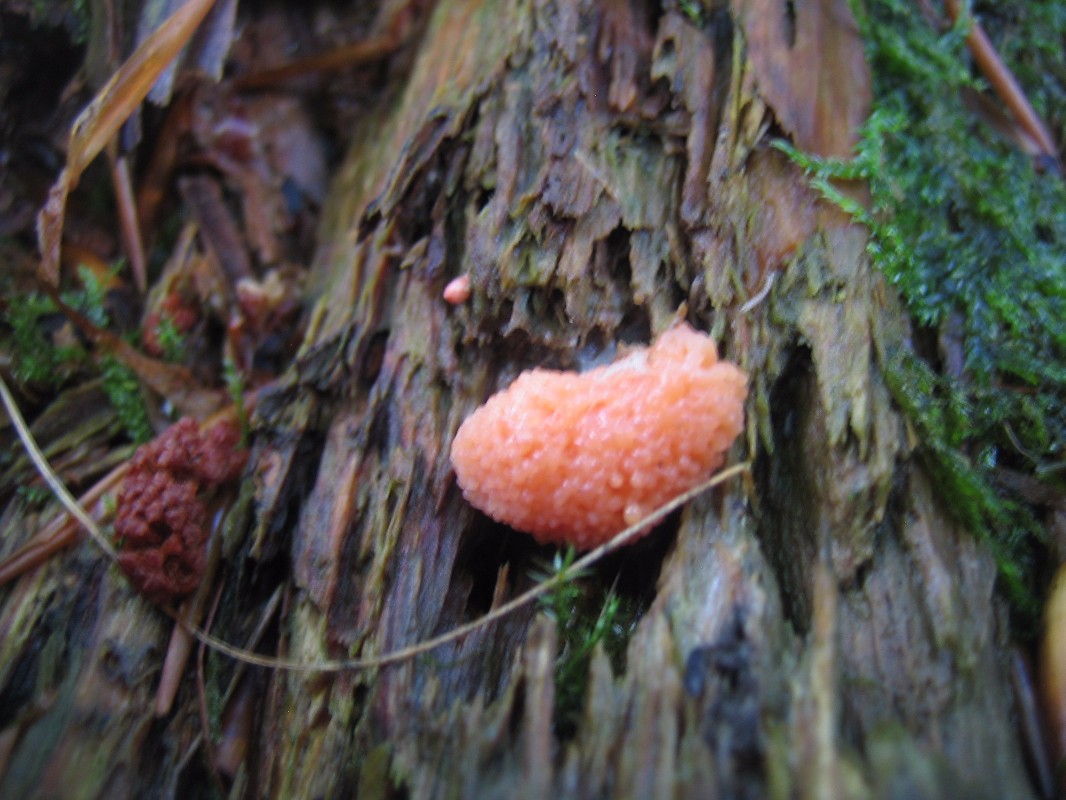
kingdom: Protozoa
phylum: Mycetozoa
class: Myxomycetes
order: Cribrariales
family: Tubiferaceae
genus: Tubifera
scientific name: Tubifera ferruginosa
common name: kanel-støvrør
